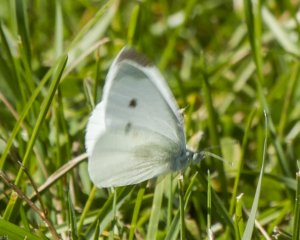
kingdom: Animalia
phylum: Arthropoda
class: Insecta
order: Lepidoptera
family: Pieridae
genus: Pieris
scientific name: Pieris rapae
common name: Cabbage White
